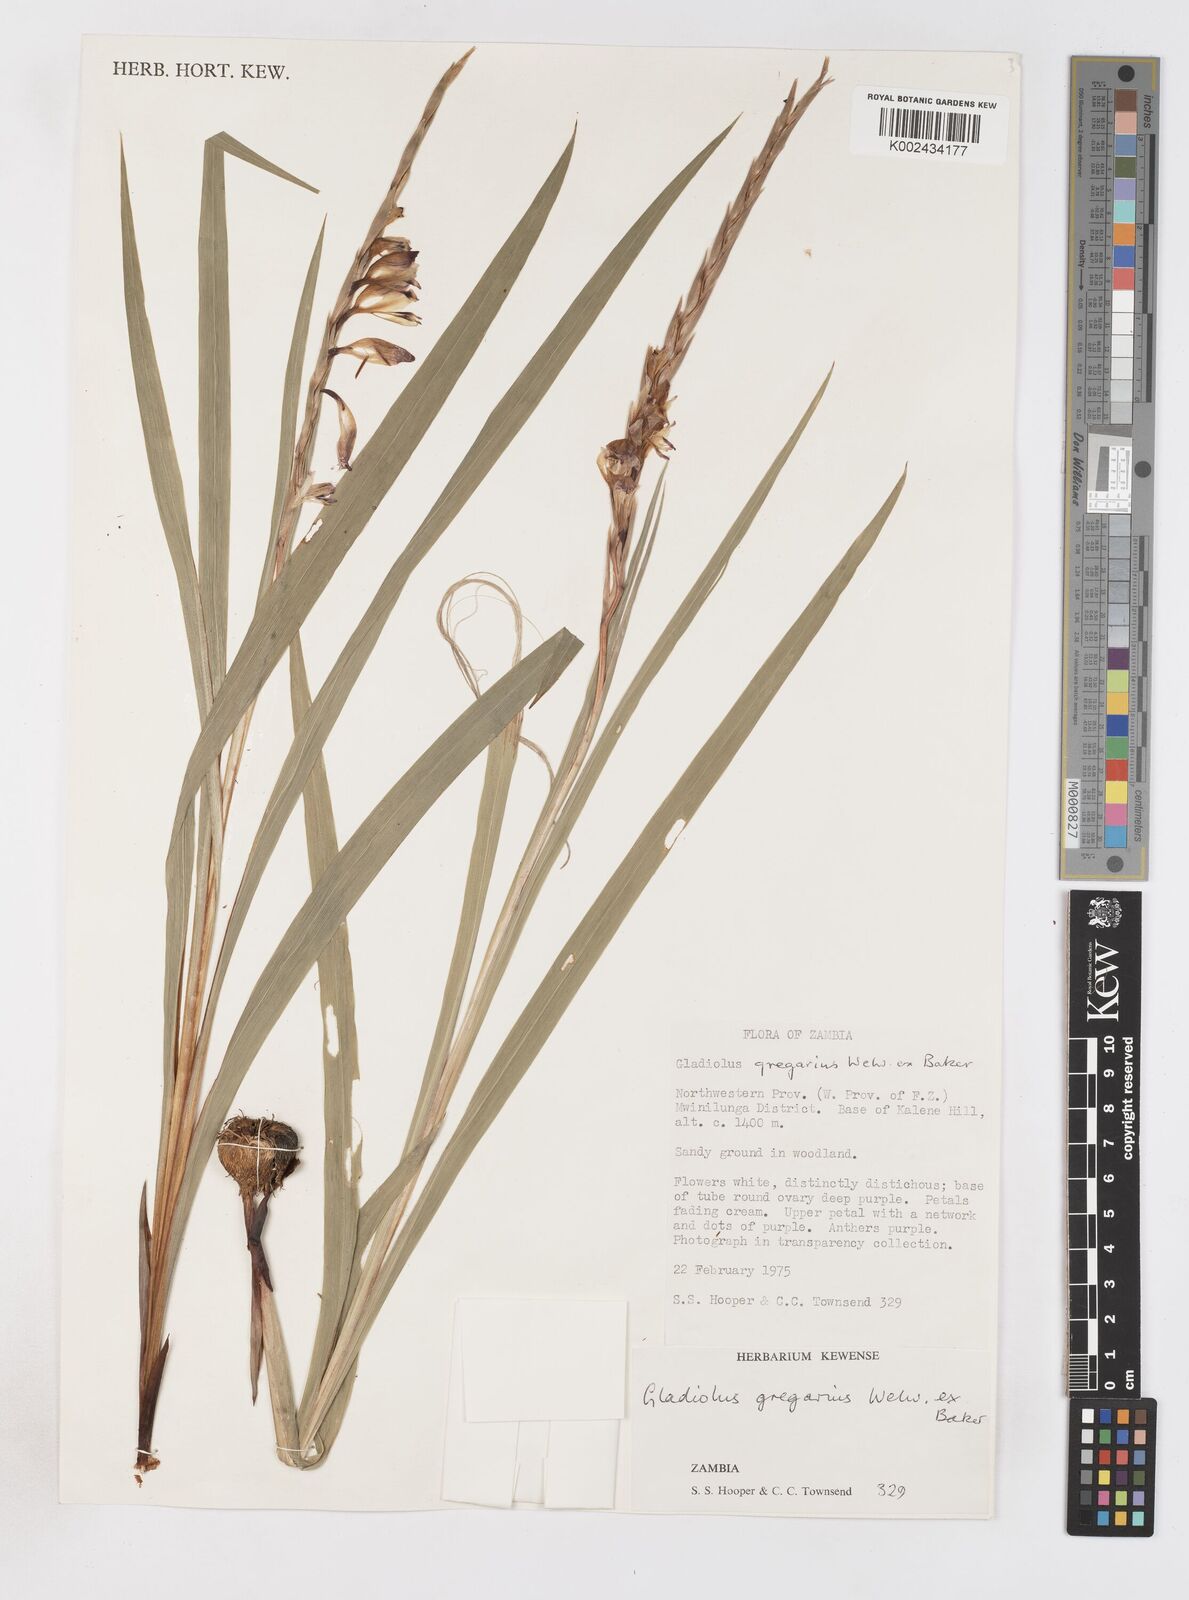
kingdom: Plantae
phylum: Tracheophyta
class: Liliopsida
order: Asparagales
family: Iridaceae
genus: Gladiolus
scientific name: Gladiolus gregarius
